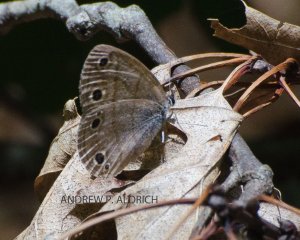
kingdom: Animalia
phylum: Arthropoda
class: Insecta
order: Lepidoptera
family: Nymphalidae
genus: Euptychia
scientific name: Euptychia cymela
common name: Little Wood Satyr
